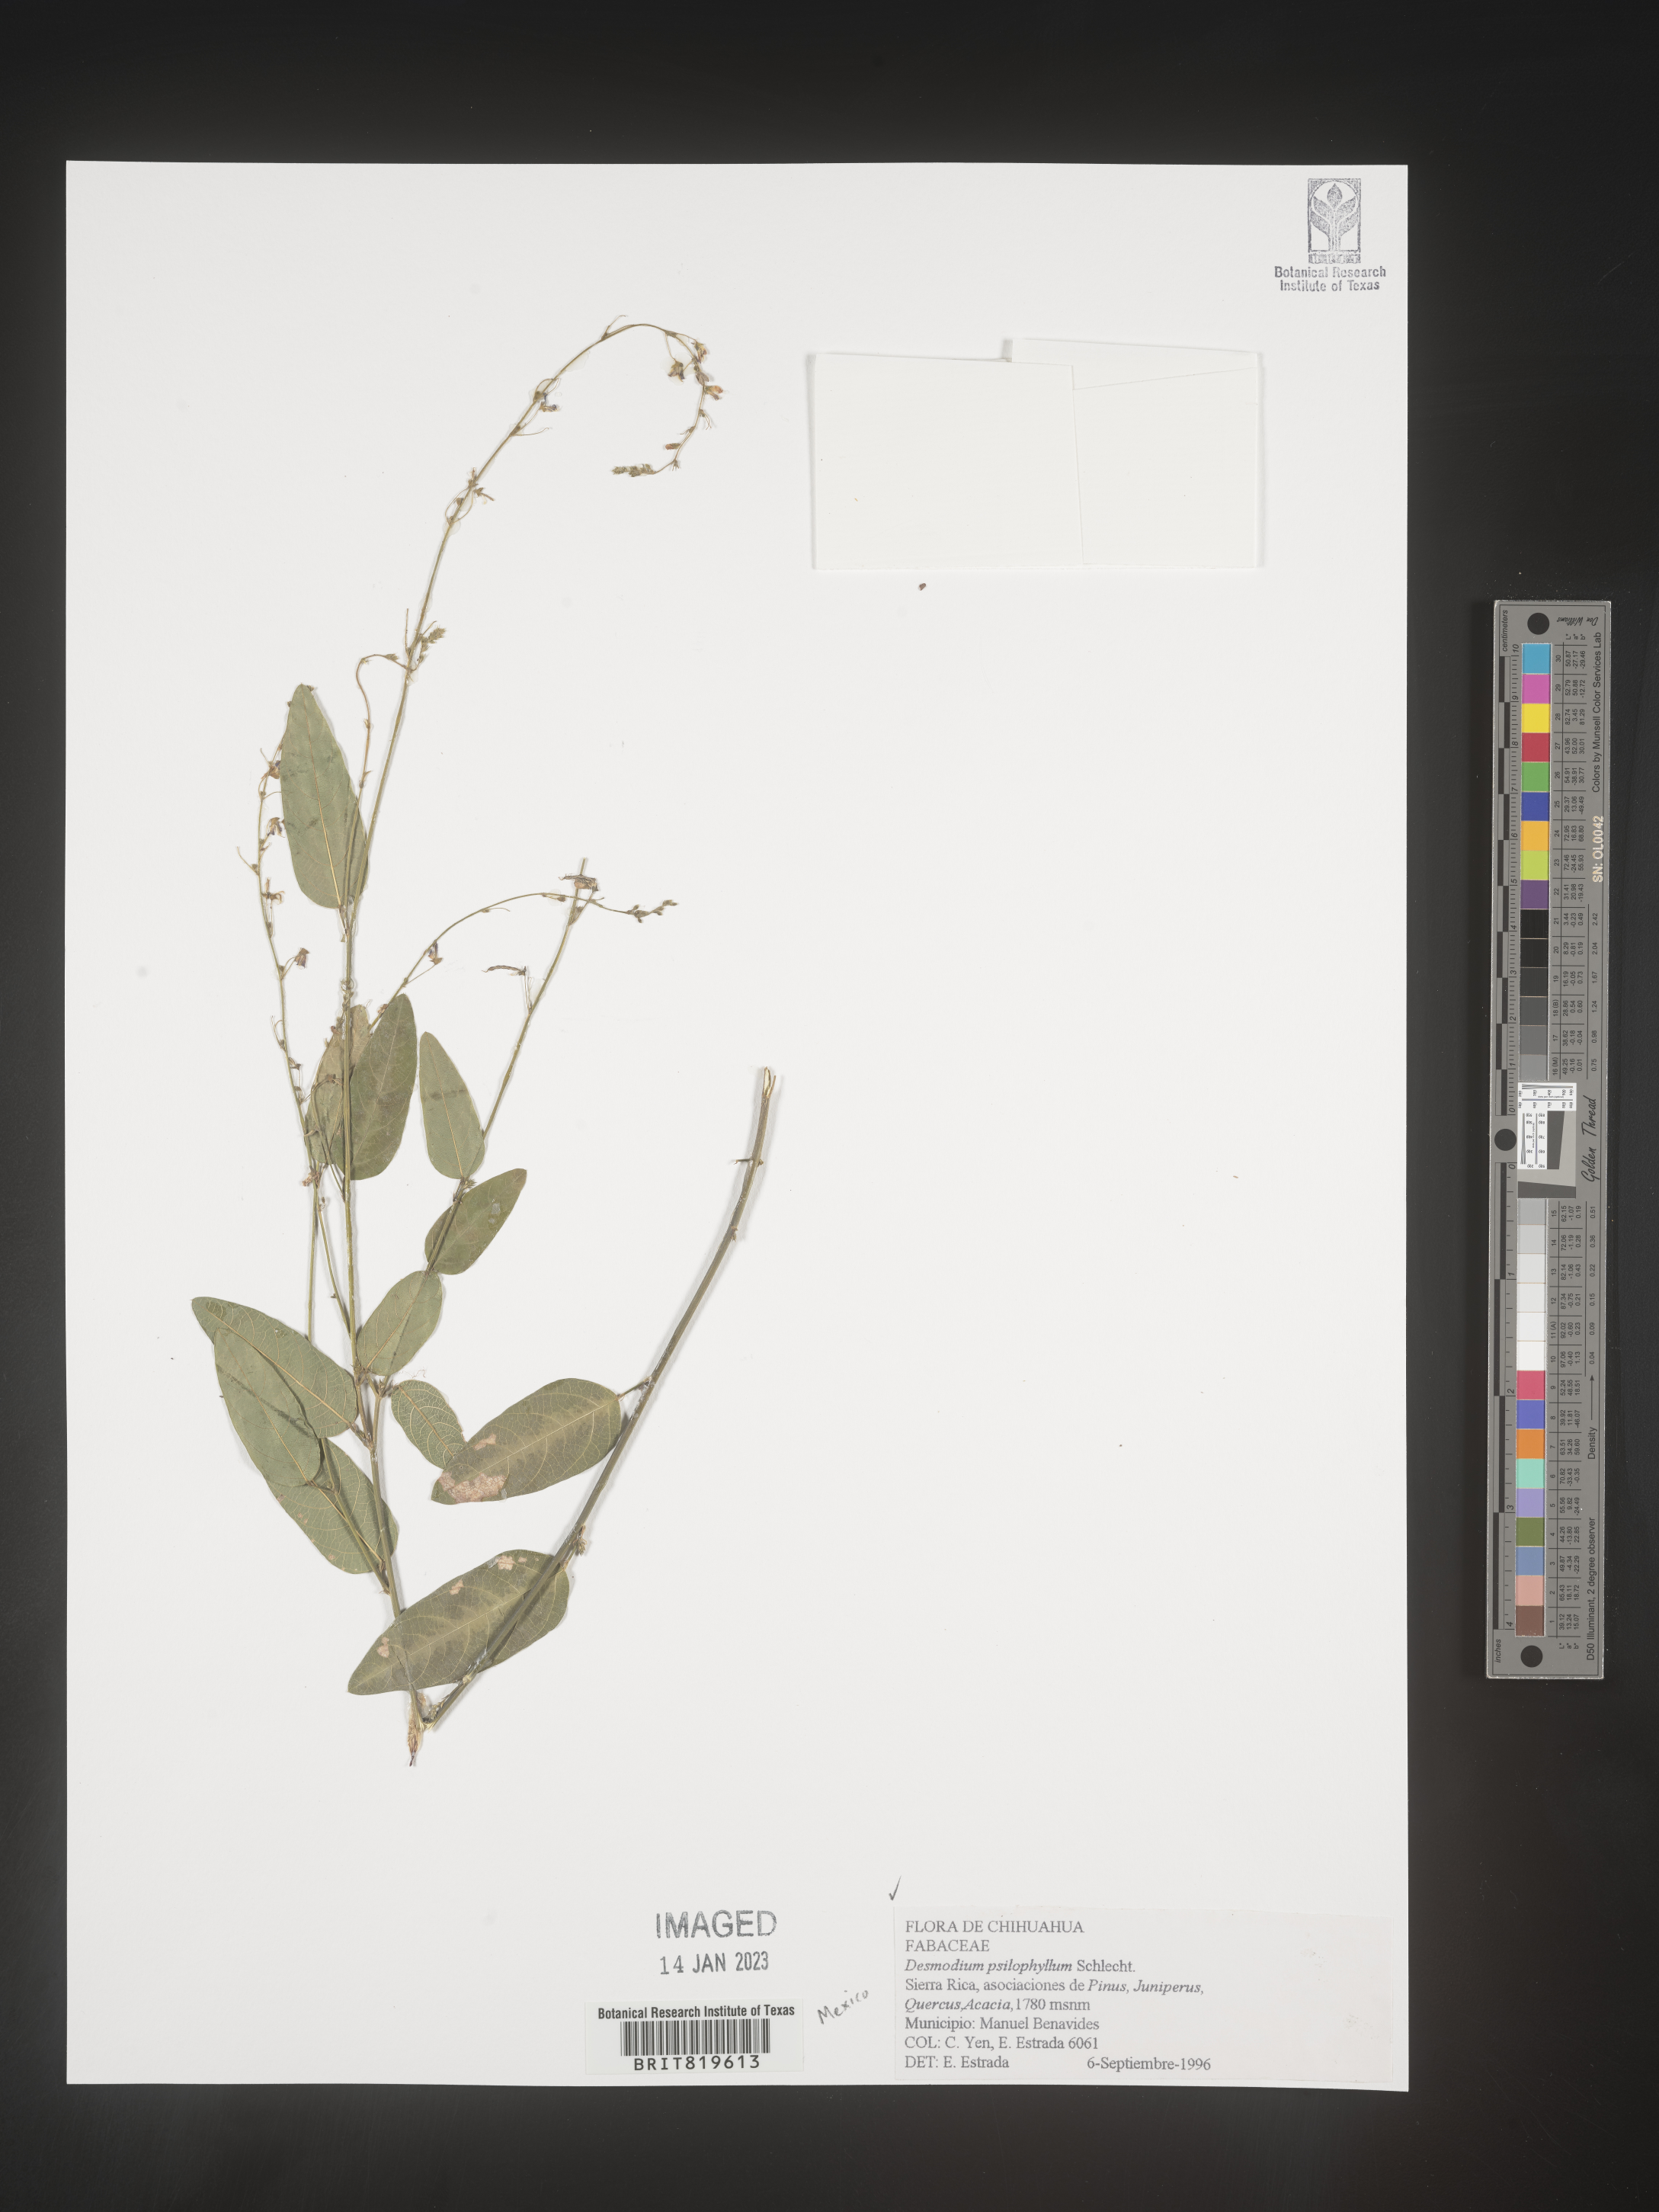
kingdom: Plantae
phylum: Tracheophyta
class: Magnoliopsida
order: Fabales
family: Fabaceae
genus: Desmodium
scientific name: Desmodium
